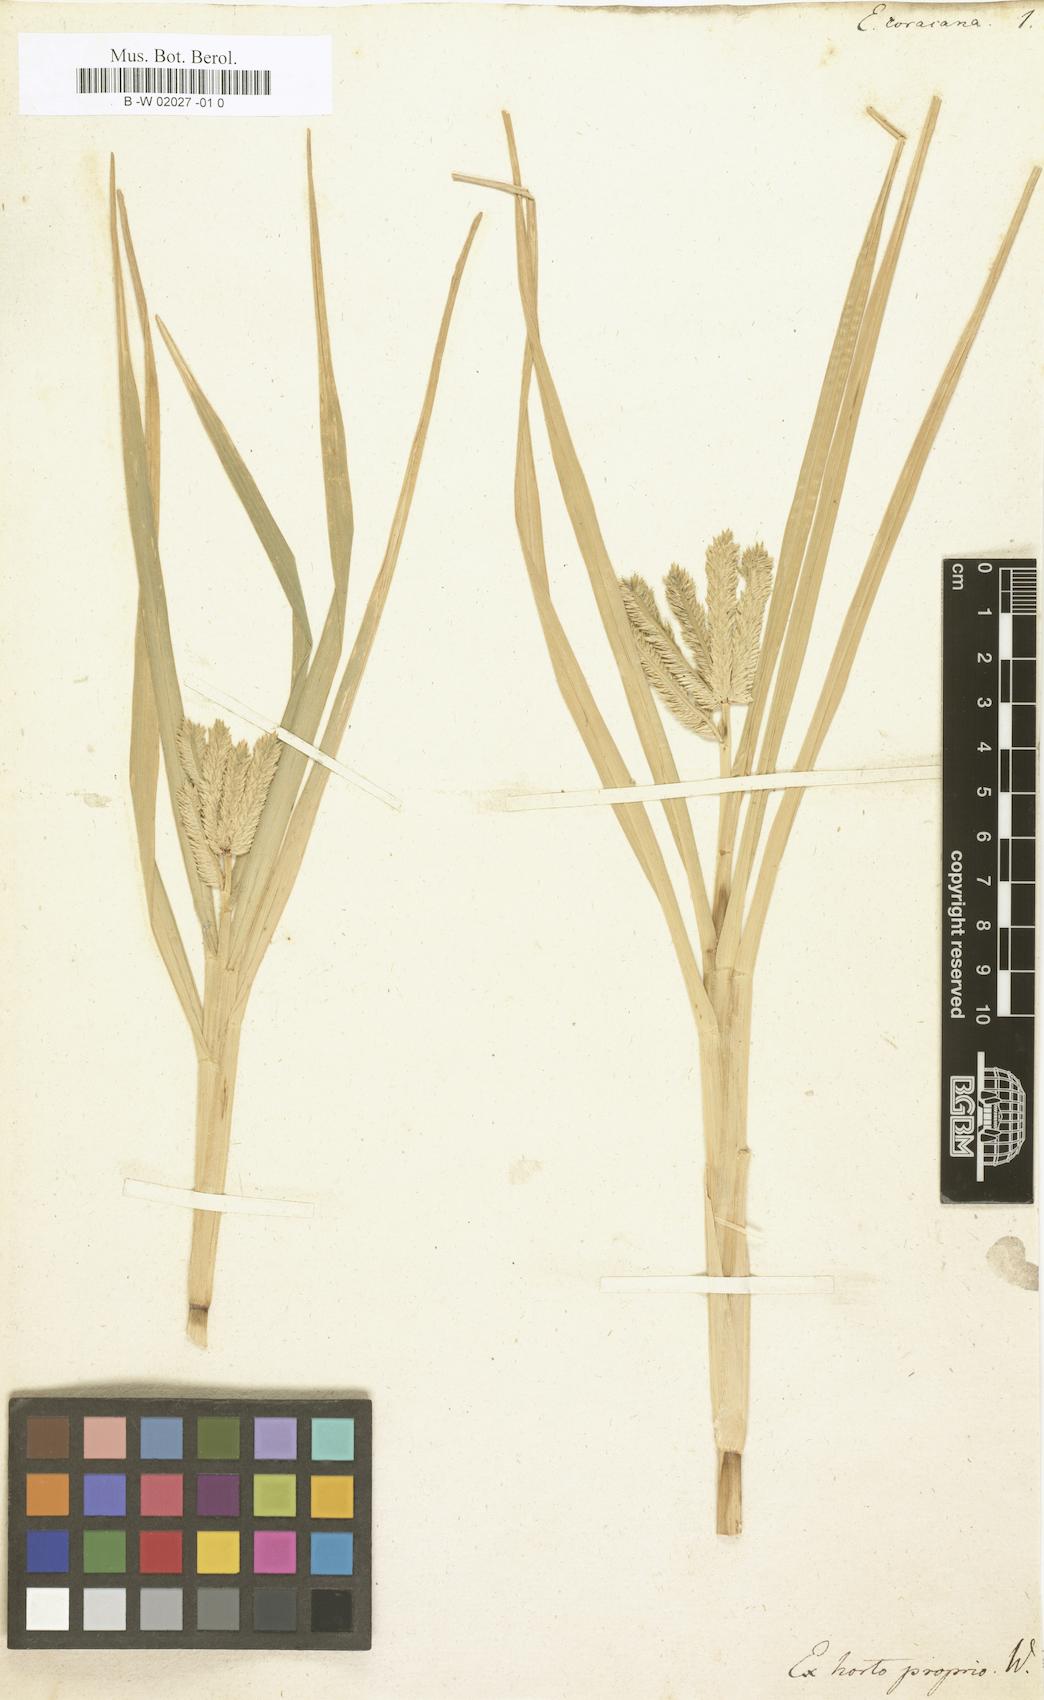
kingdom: Plantae
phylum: Tracheophyta
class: Liliopsida
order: Poales
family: Poaceae
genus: Eleusine
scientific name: Eleusine coracana
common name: Finger millet
